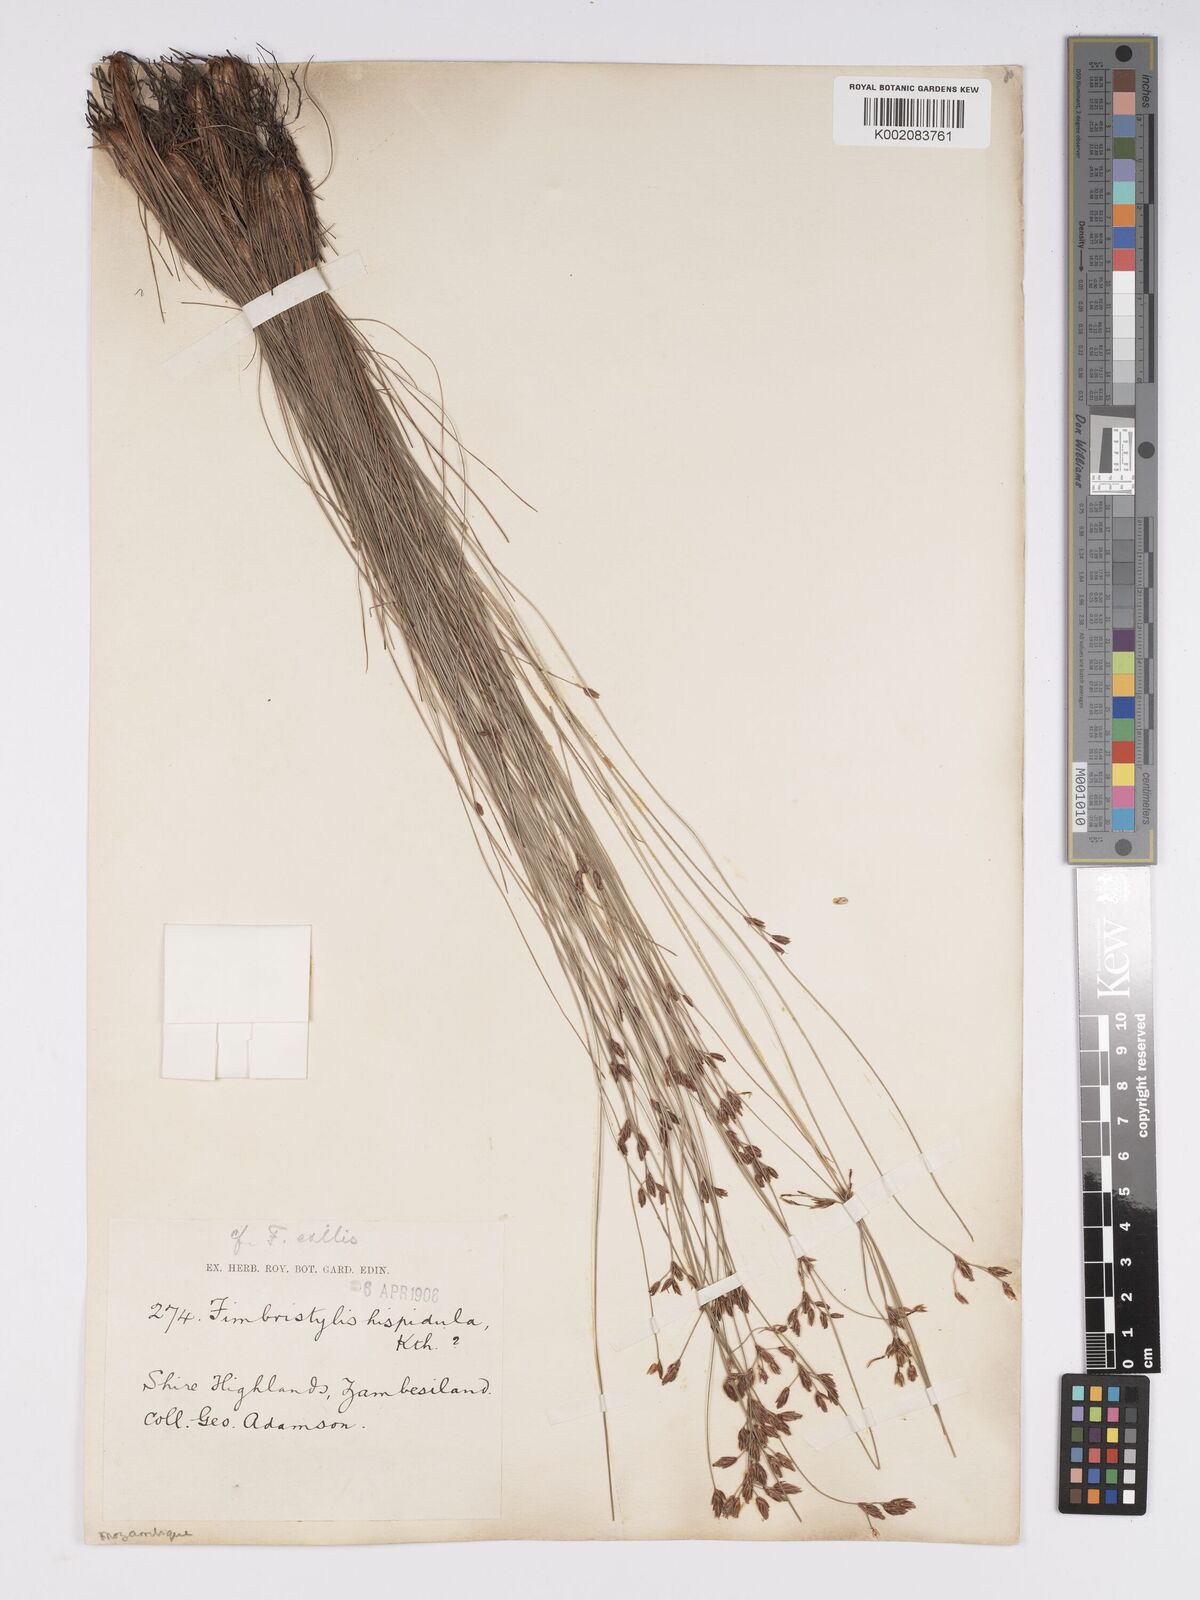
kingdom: Plantae
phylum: Tracheophyta
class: Liliopsida
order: Poales
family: Cyperaceae
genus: Bulbostylis
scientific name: Bulbostylis hispidula
